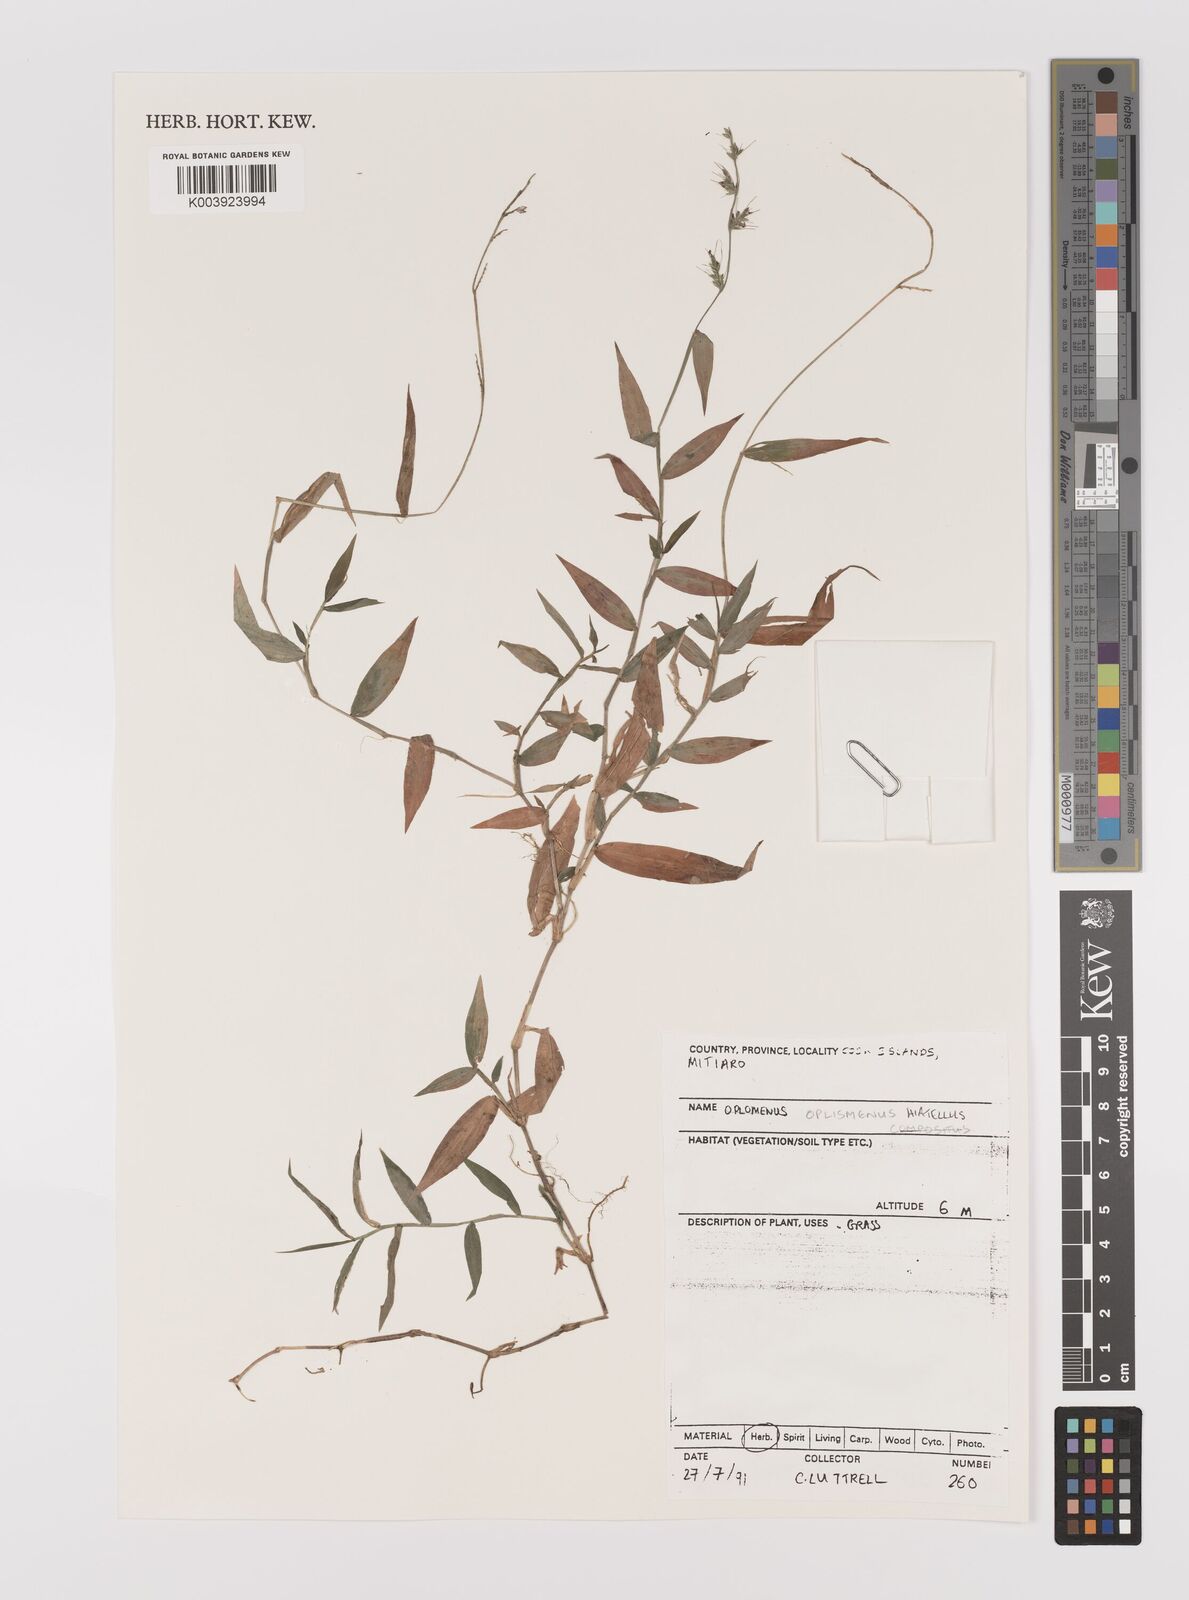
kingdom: Plantae
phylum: Tracheophyta
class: Liliopsida
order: Poales
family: Poaceae
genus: Oplismenus
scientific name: Oplismenus compositus
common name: Running mountain grass
